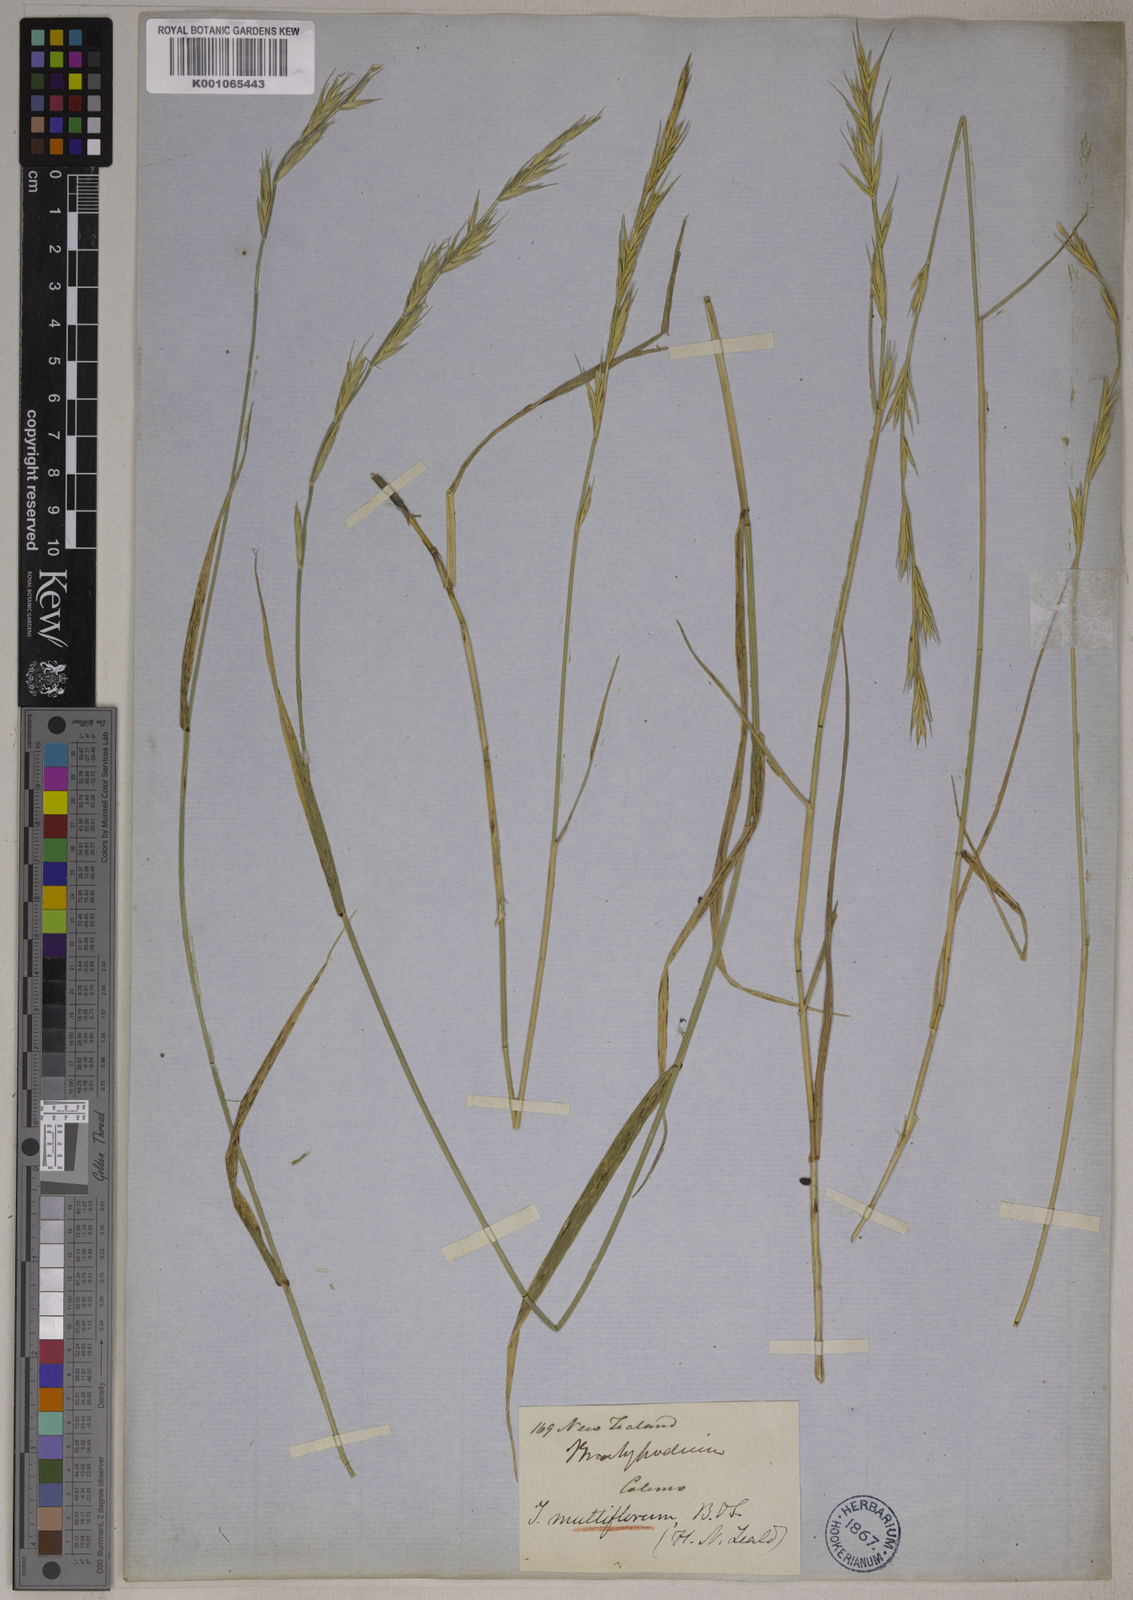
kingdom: Plantae
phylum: Tracheophyta
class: Liliopsida
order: Poales
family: Poaceae
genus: Elymus
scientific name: Elymus
